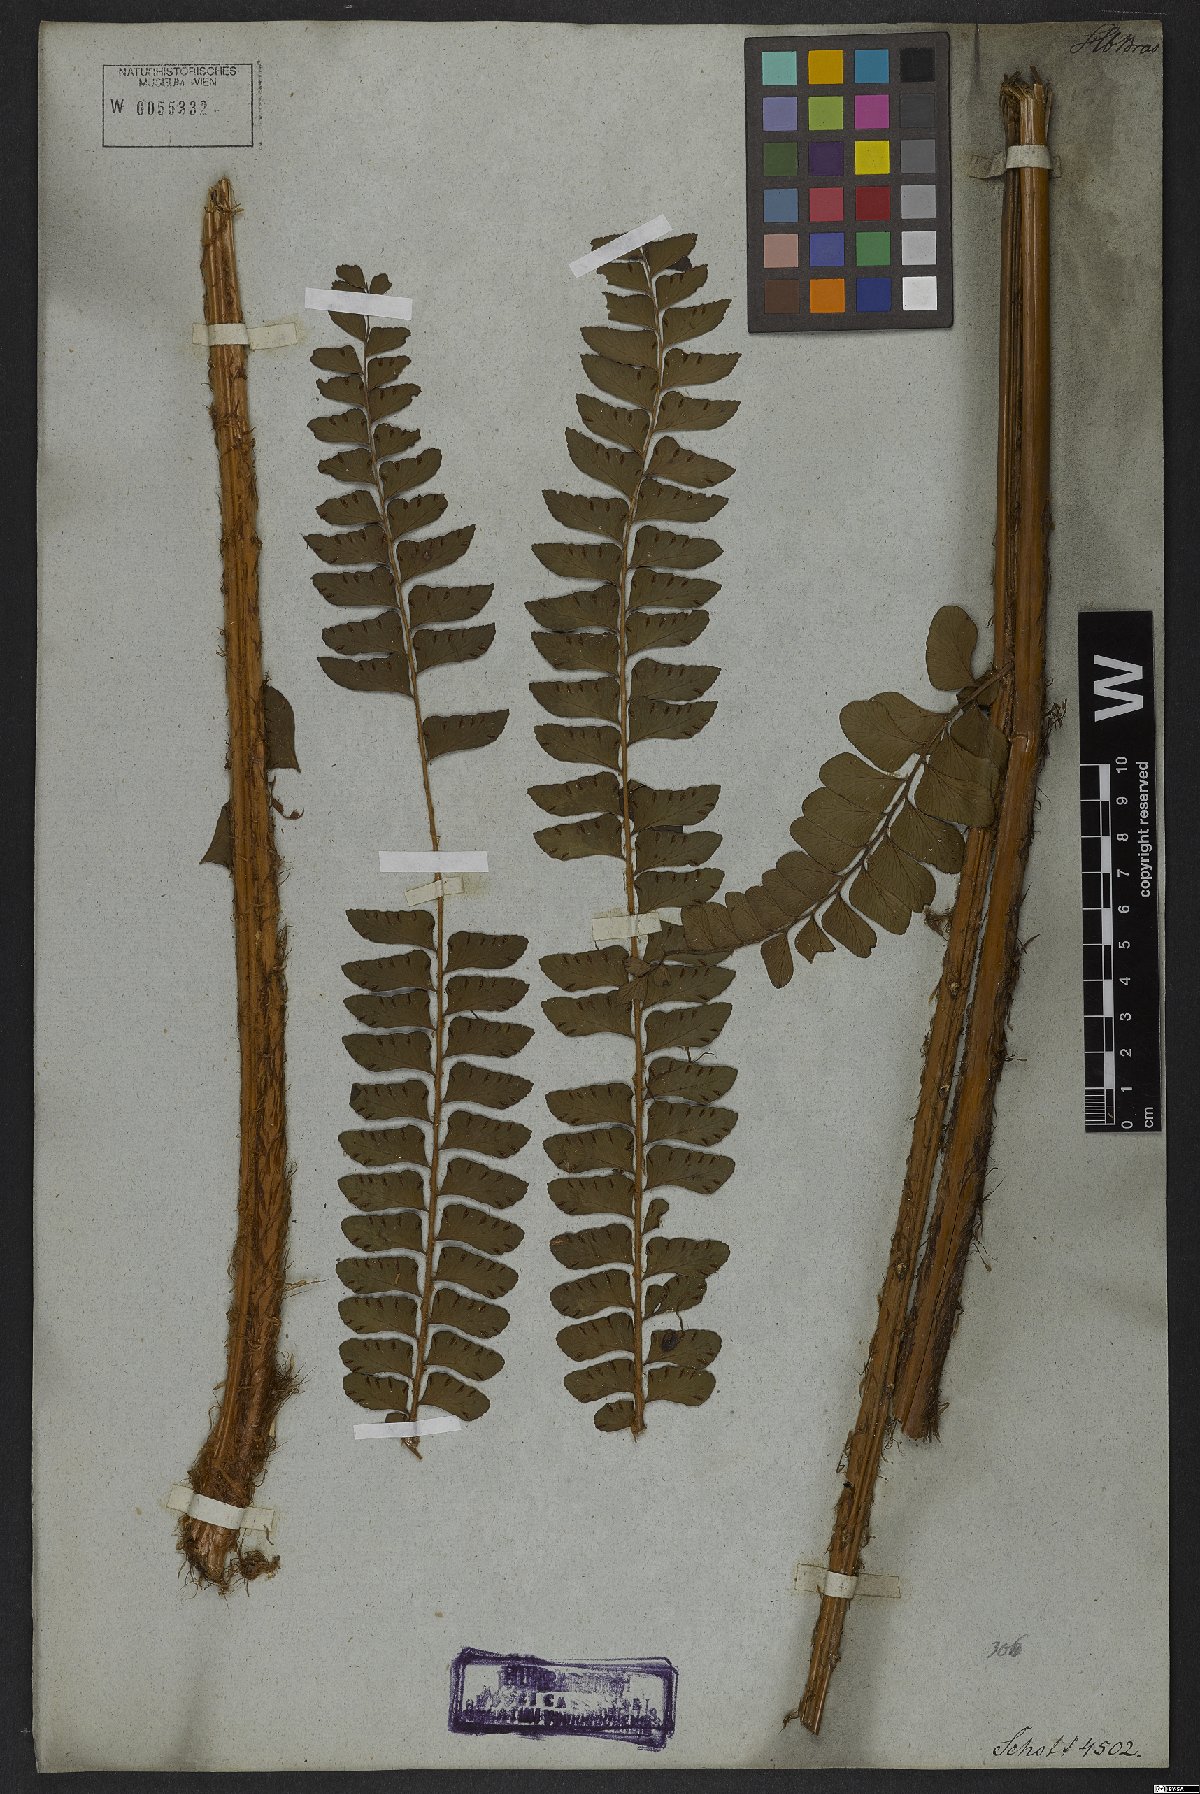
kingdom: Plantae
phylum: Tracheophyta
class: Polypodiopsida
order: Polypodiales
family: Didymochlaenaceae
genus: Didymochlaena
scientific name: Didymochlaena truncatula
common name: Mahogany fern
